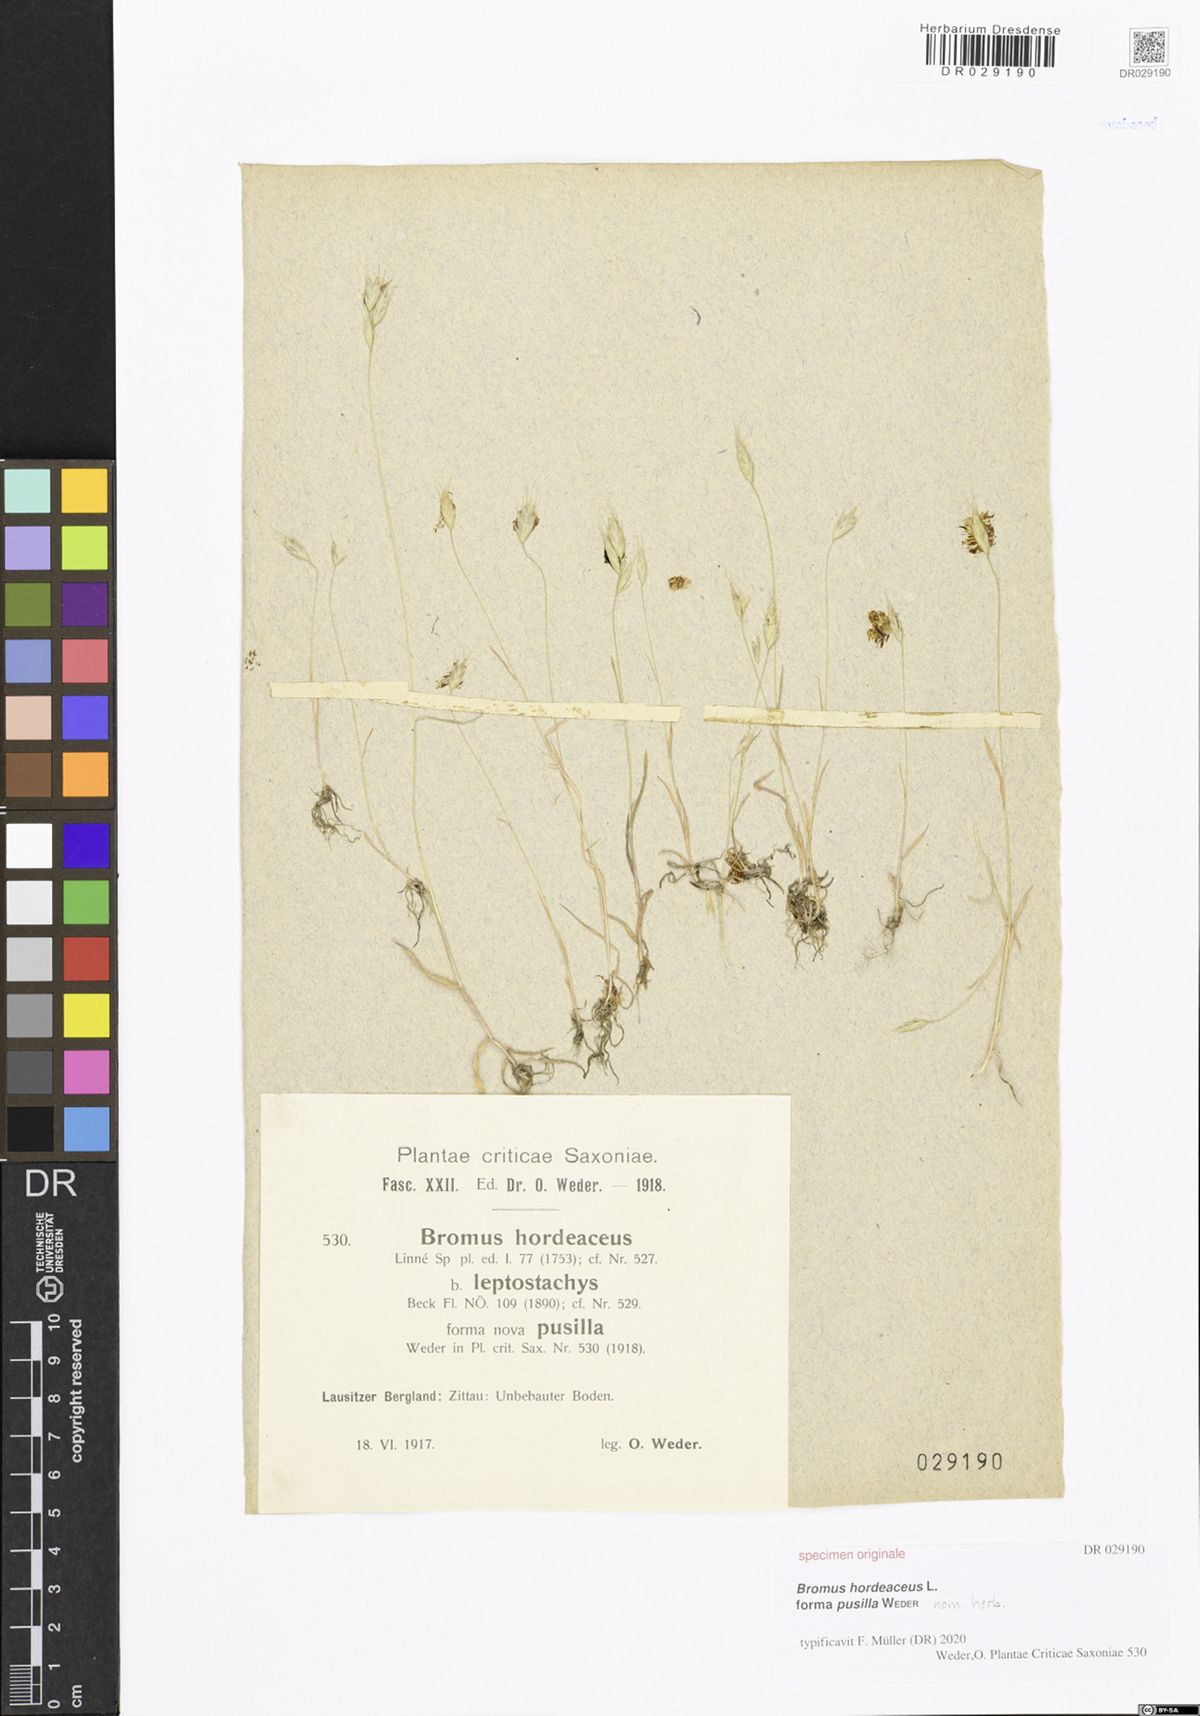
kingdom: Plantae
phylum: Tracheophyta
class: Liliopsida
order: Poales
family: Poaceae
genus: Bromus
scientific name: Bromus hordeaceus
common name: Soft brome
